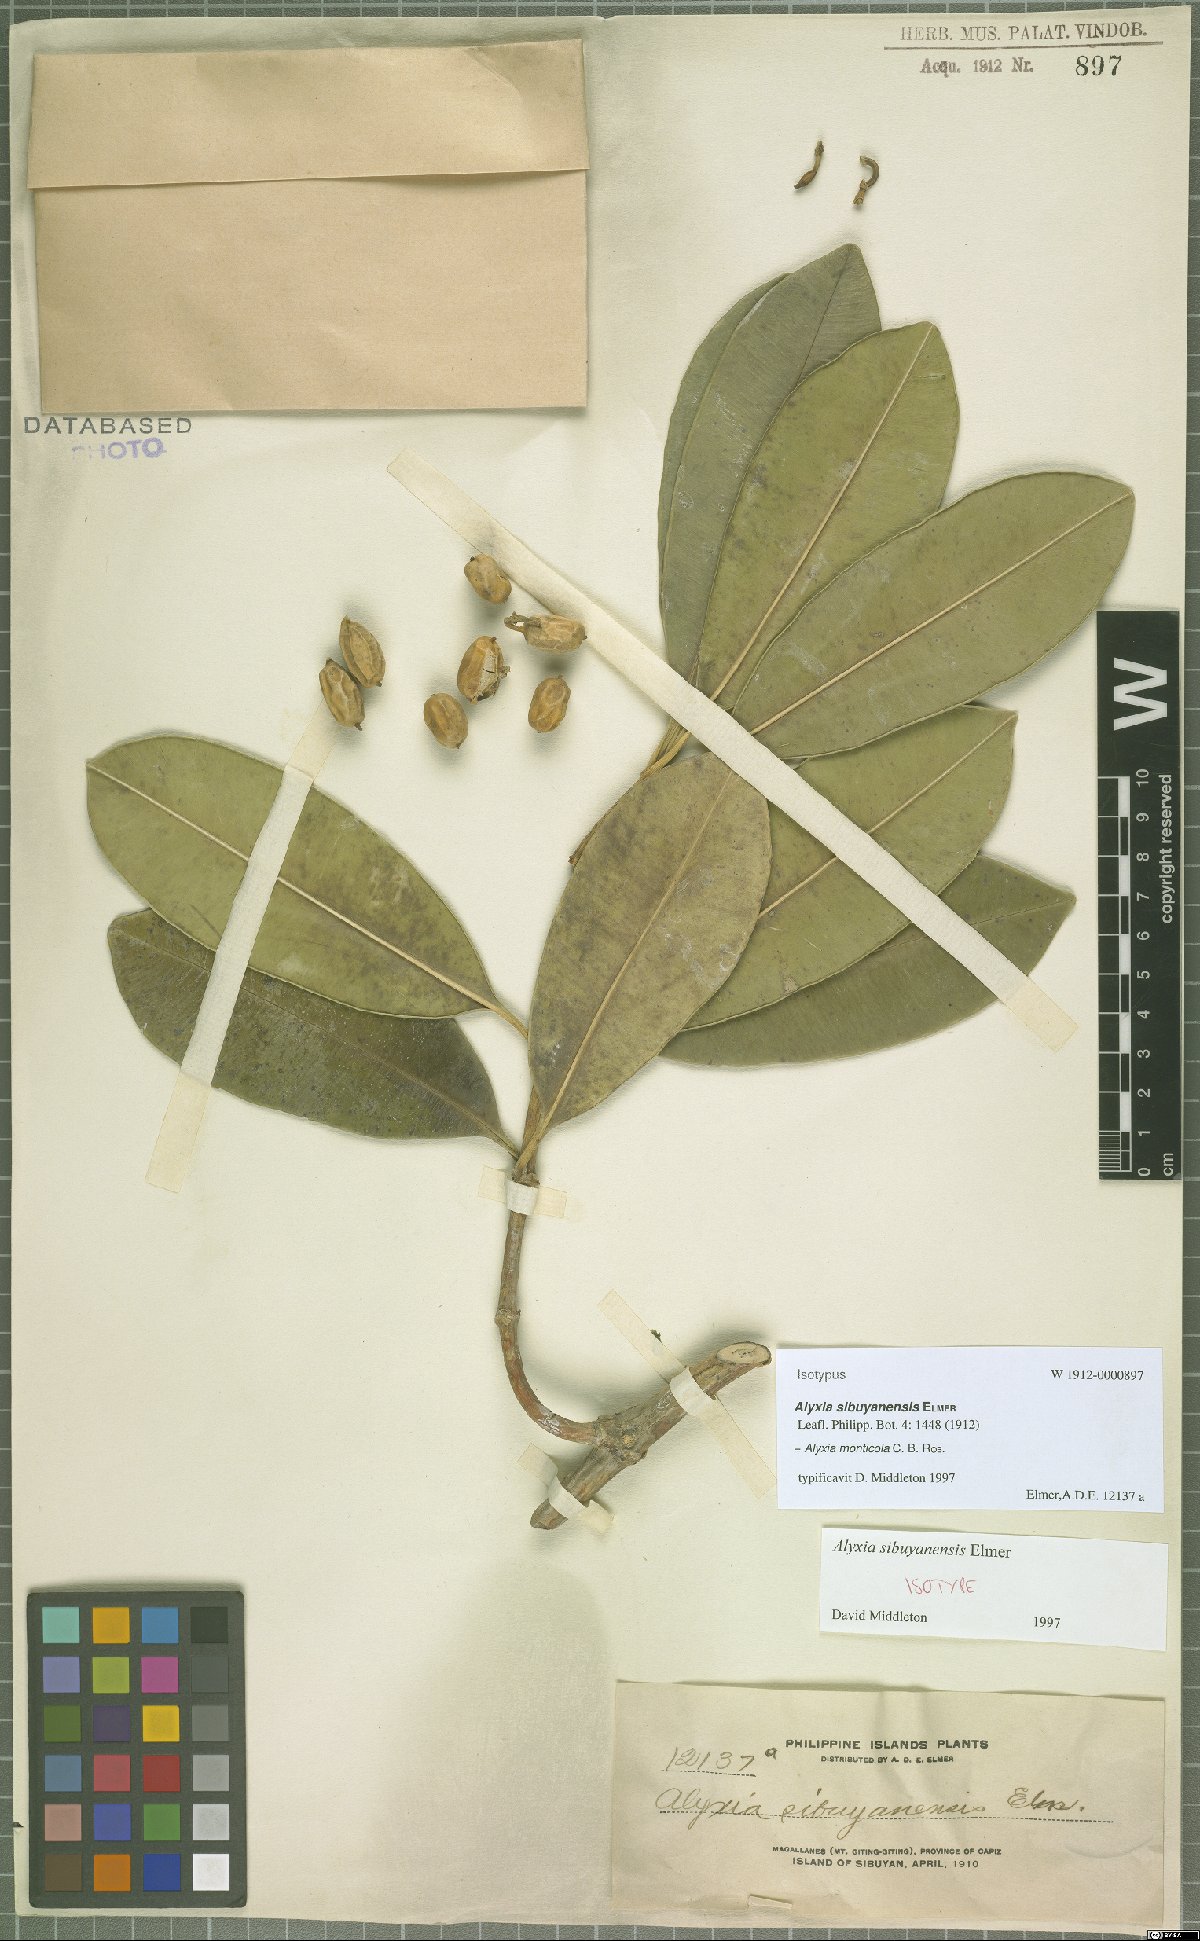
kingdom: Plantae
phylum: Tracheophyta
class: Magnoliopsida
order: Gentianales
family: Apocynaceae
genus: Alyxia
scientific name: Alyxia monticola
